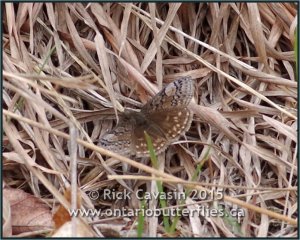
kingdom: Animalia
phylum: Arthropoda
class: Insecta
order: Lepidoptera
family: Hesperiidae
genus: Erynnis
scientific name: Erynnis brizo
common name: Sleepy Duskywing
